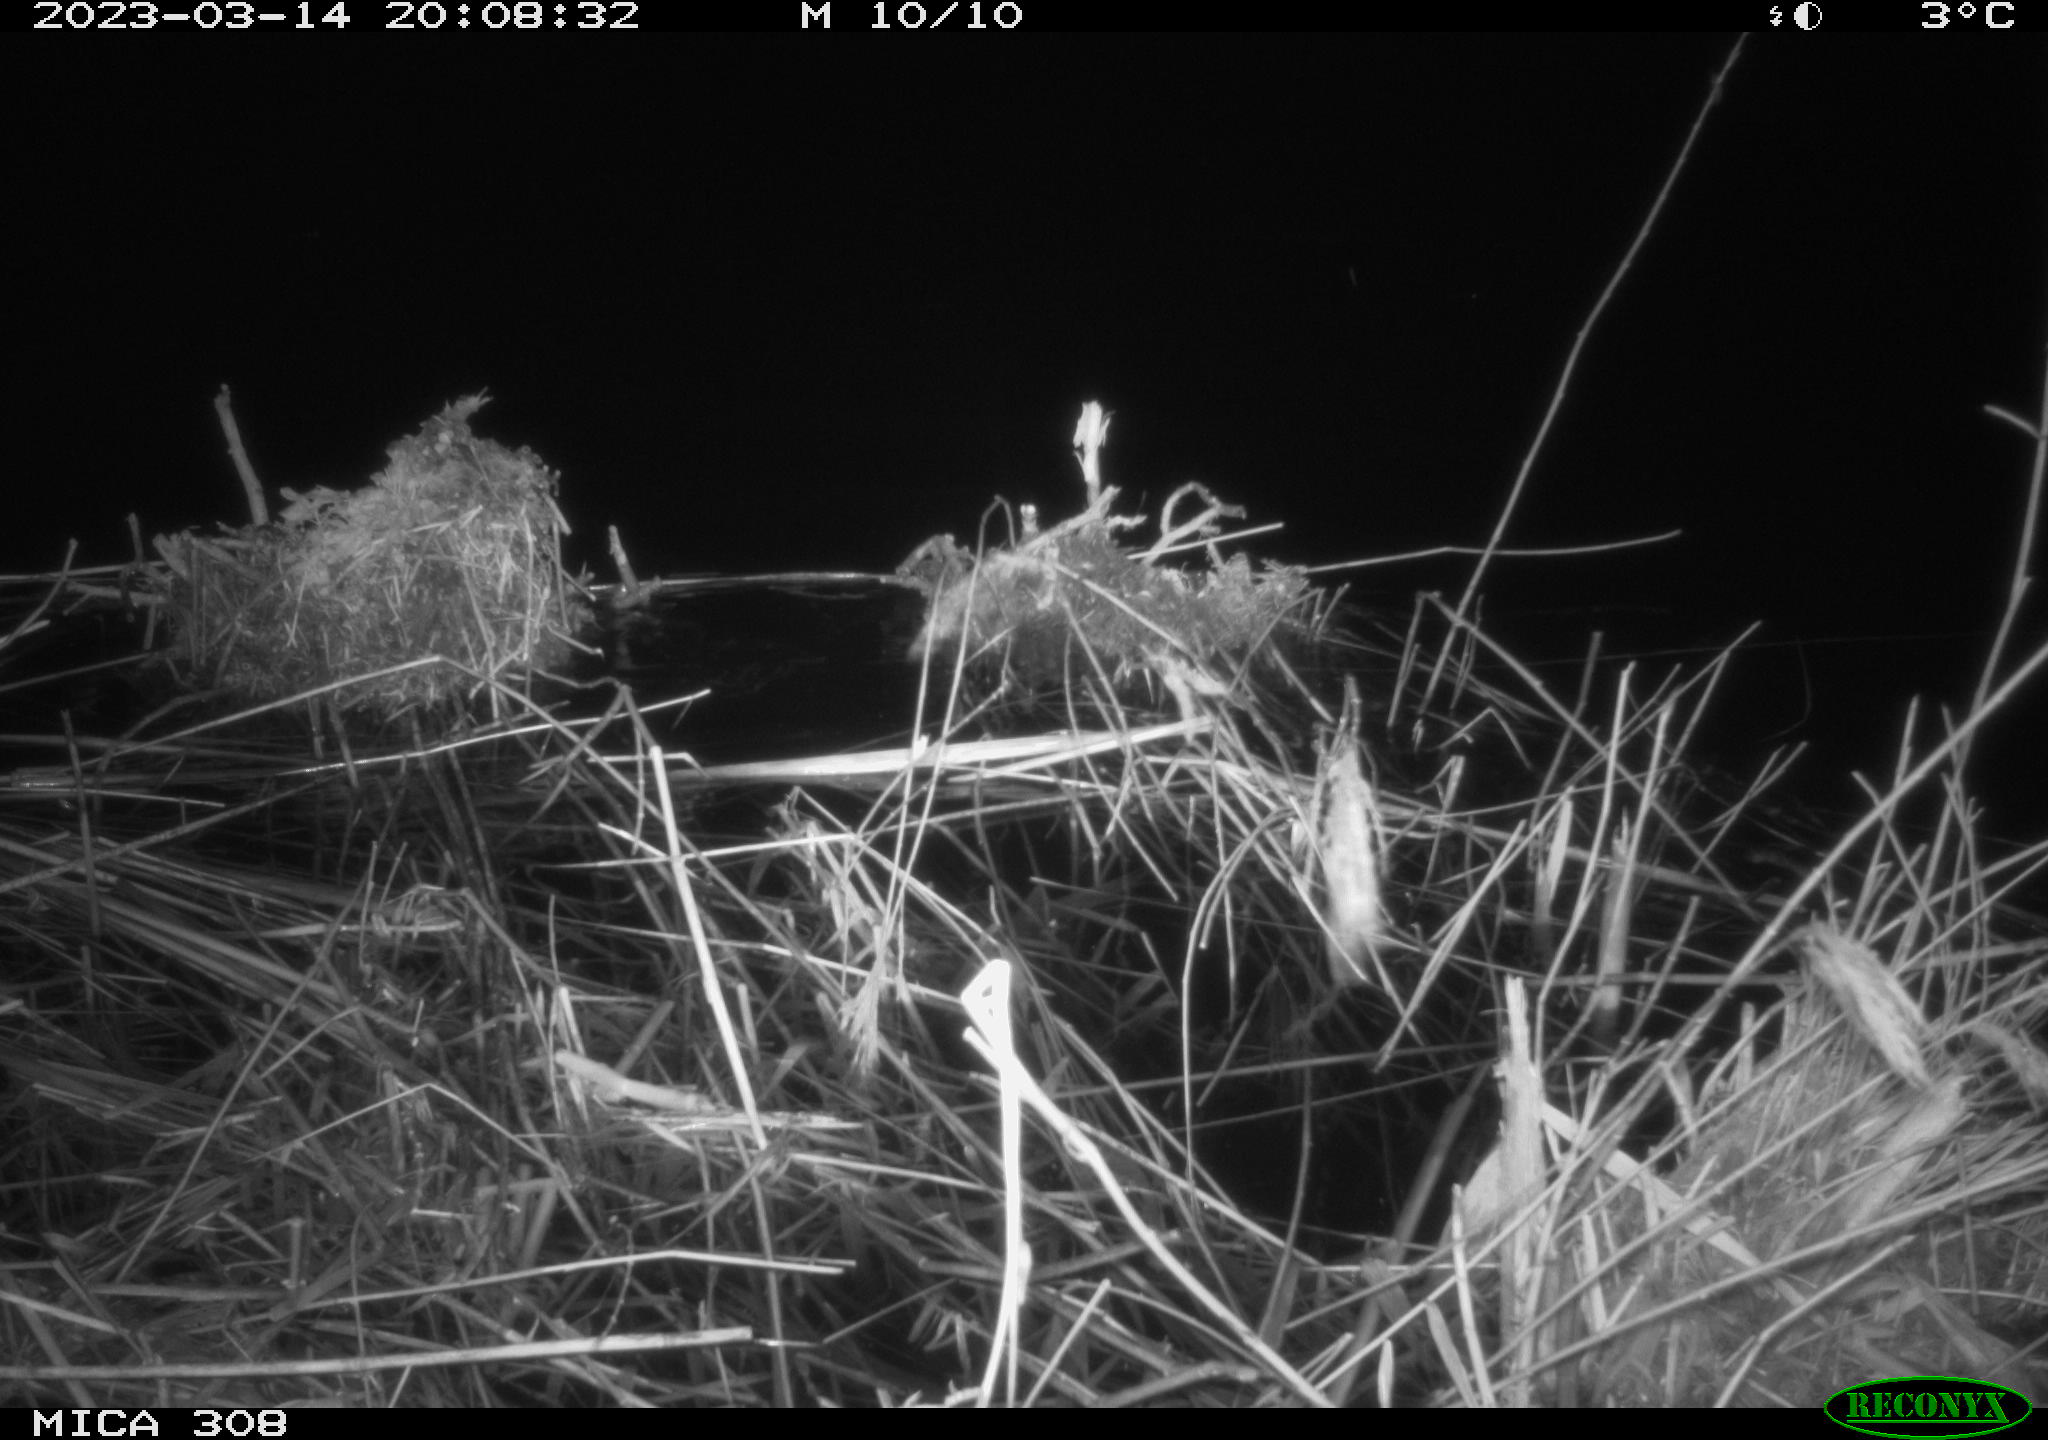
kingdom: Animalia
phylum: Chordata
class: Mammalia
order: Rodentia
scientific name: Rodentia
